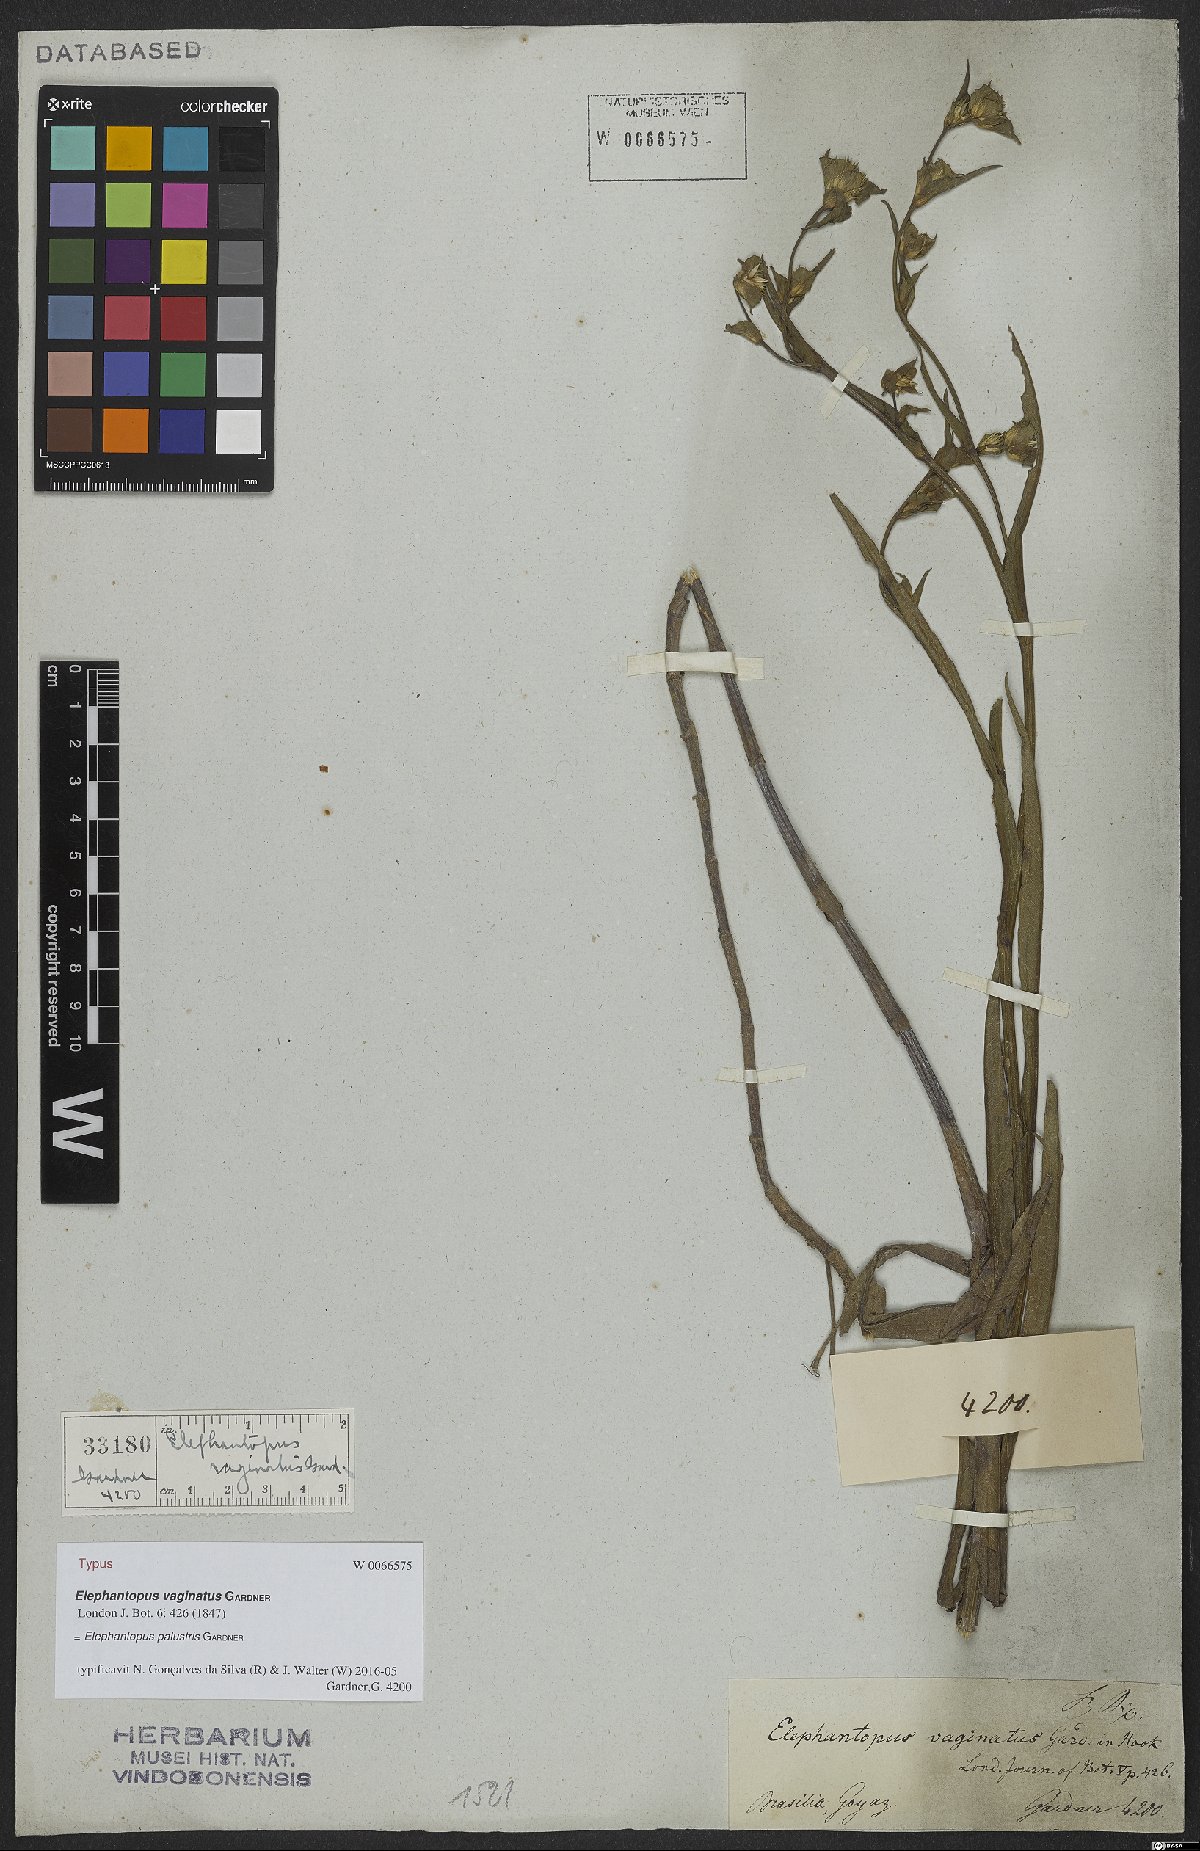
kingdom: Plantae
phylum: Tracheophyta
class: Magnoliopsida
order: Asterales
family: Asteraceae
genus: Elephantopus
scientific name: Elephantopus palustris
